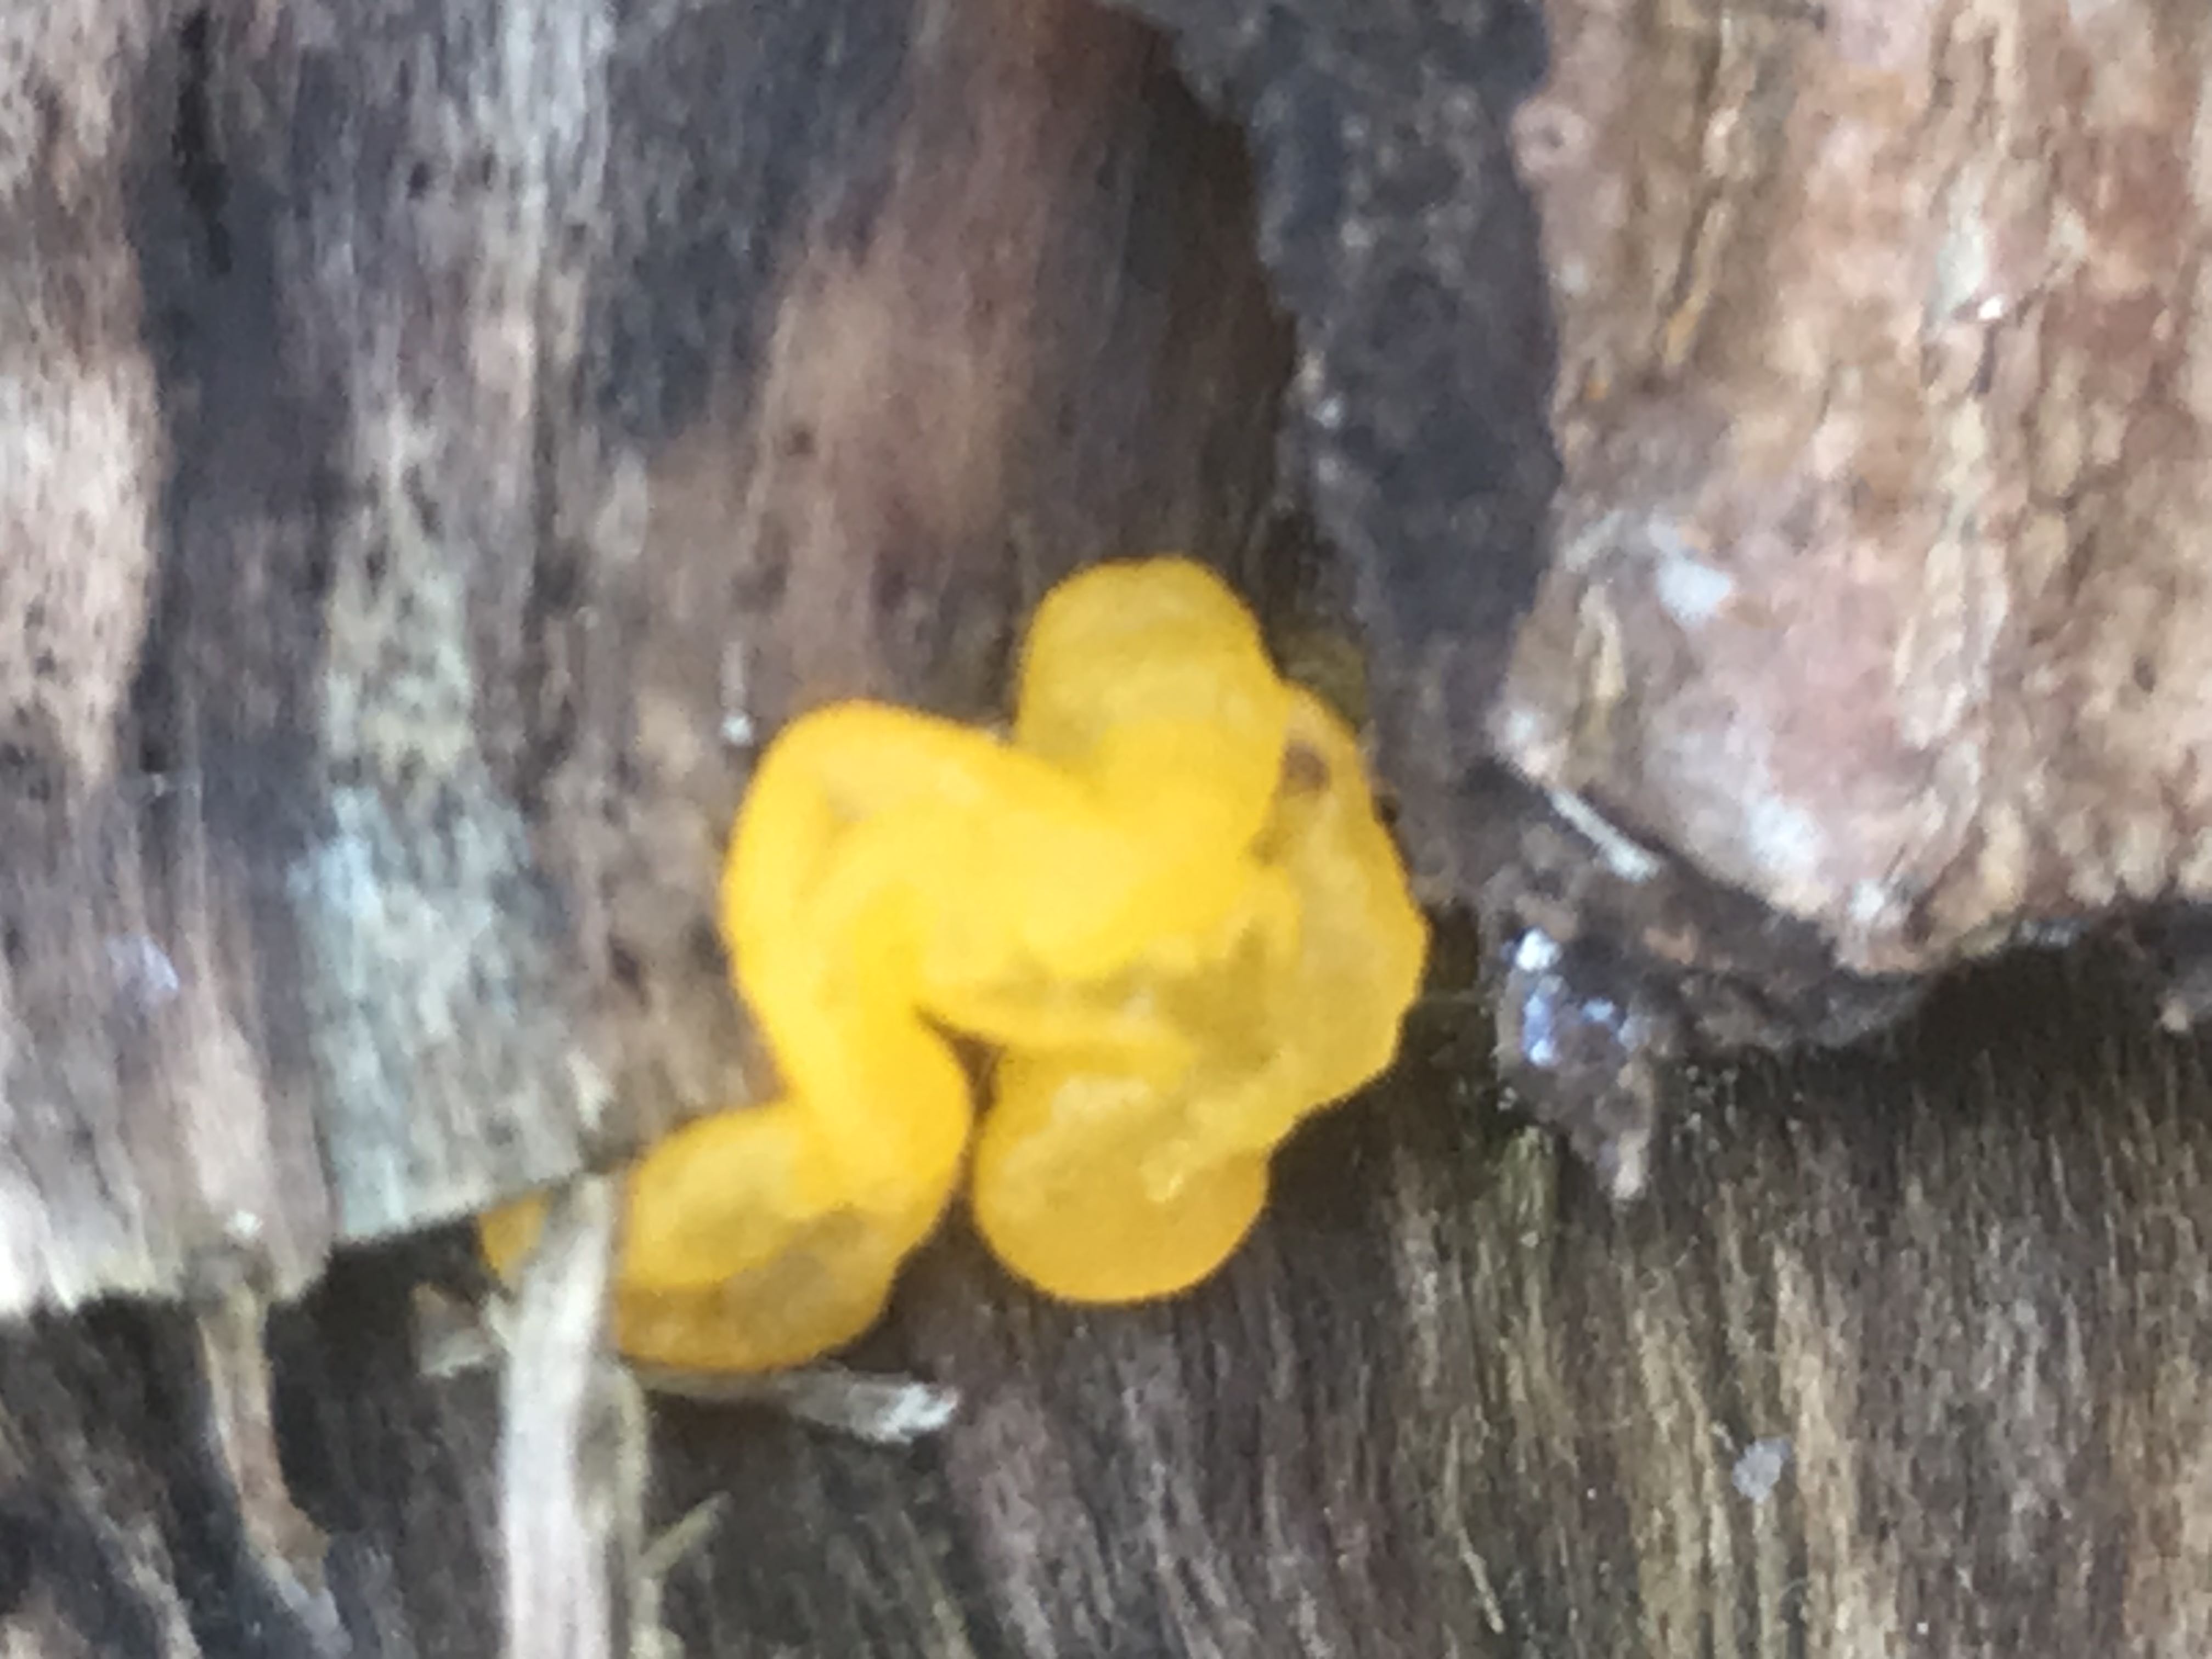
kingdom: Fungi
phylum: Basidiomycota
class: Tremellomycetes
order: Tremellales
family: Tremellaceae
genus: Tremella
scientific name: Tremella mesenterica
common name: gul bævresvamp
